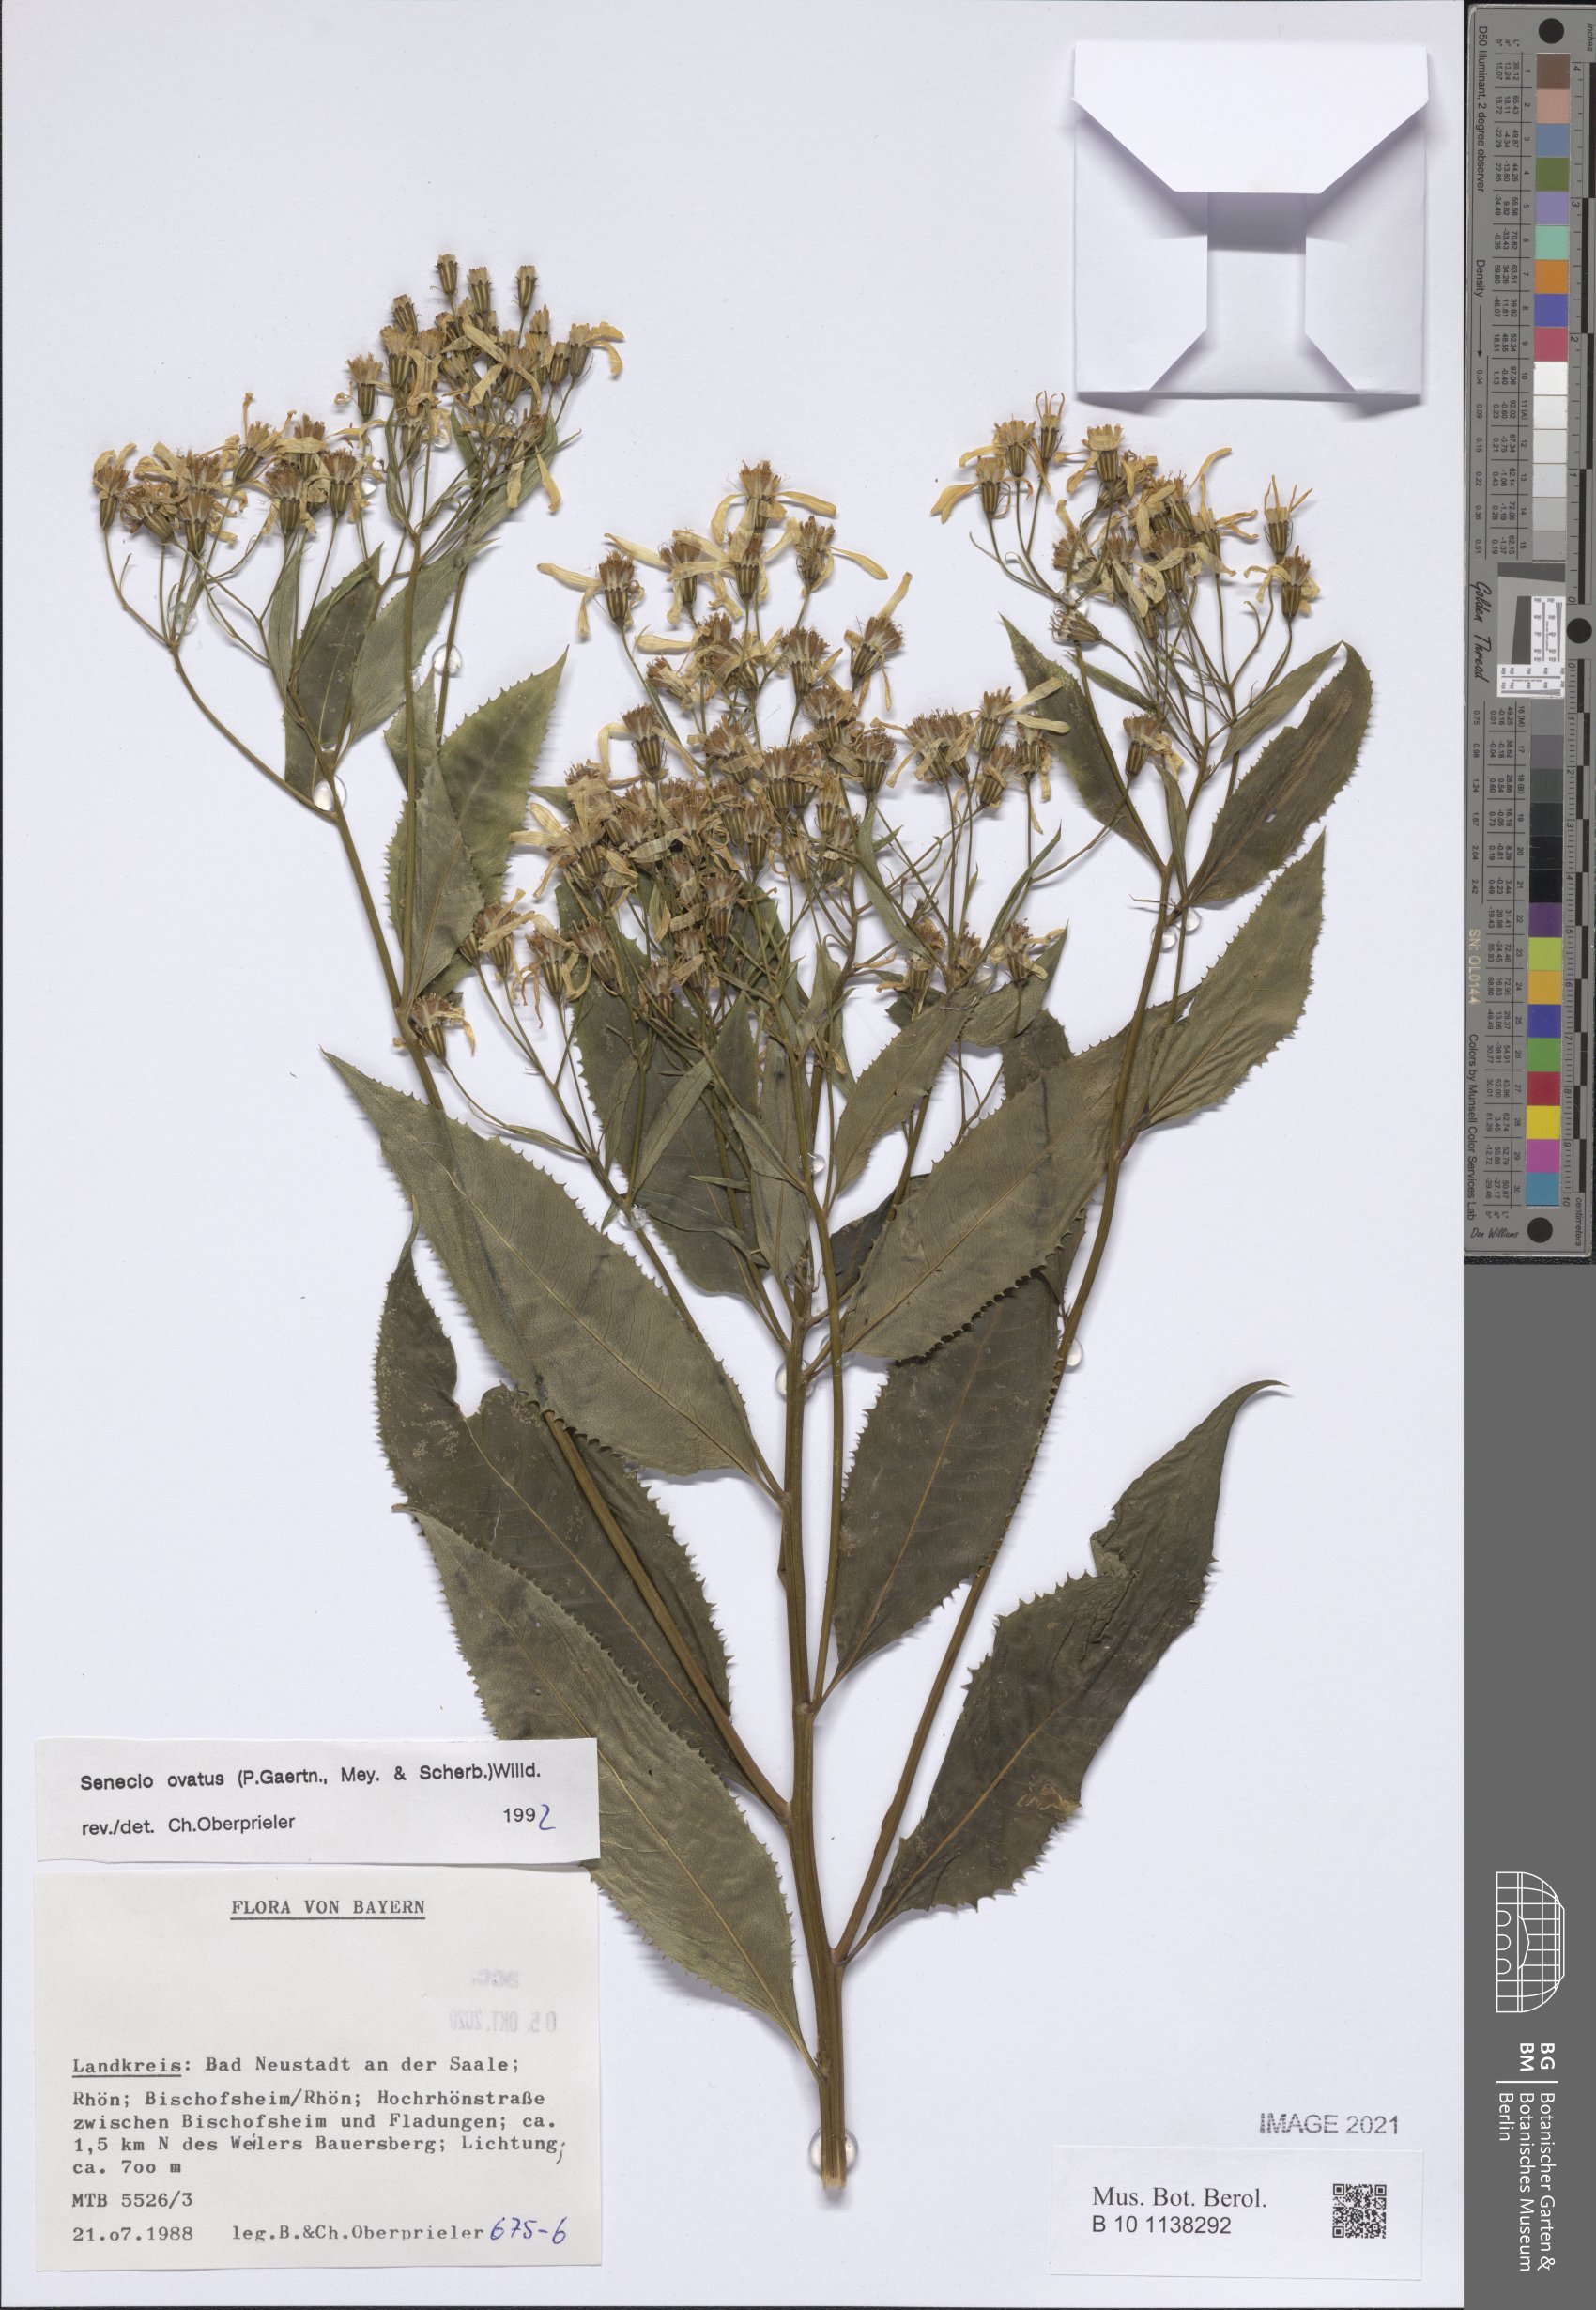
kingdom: Plantae
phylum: Tracheophyta
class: Magnoliopsida
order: Asterales
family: Asteraceae
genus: Senecio
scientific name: Senecio ovatus
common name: Wood ragwort
